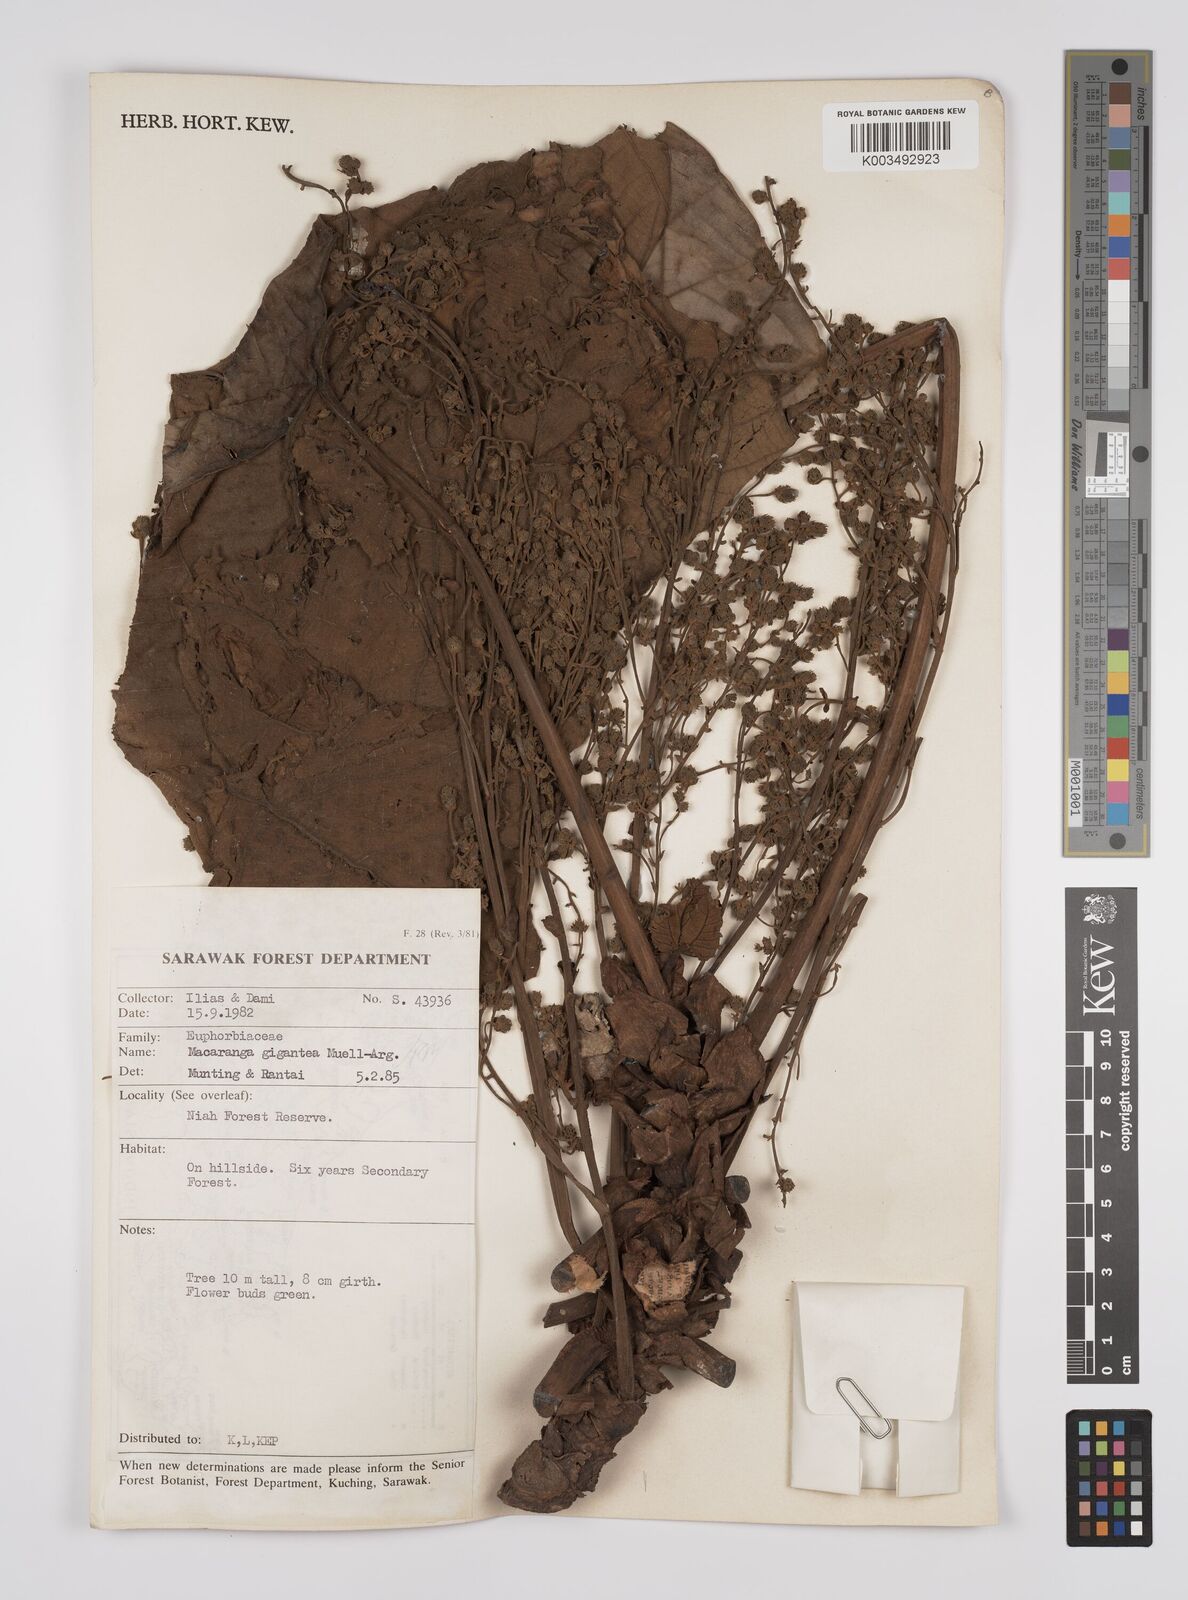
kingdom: Plantae
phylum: Tracheophyta
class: Magnoliopsida
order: Malpighiales
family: Euphorbiaceae
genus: Macaranga
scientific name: Macaranga gigantea
